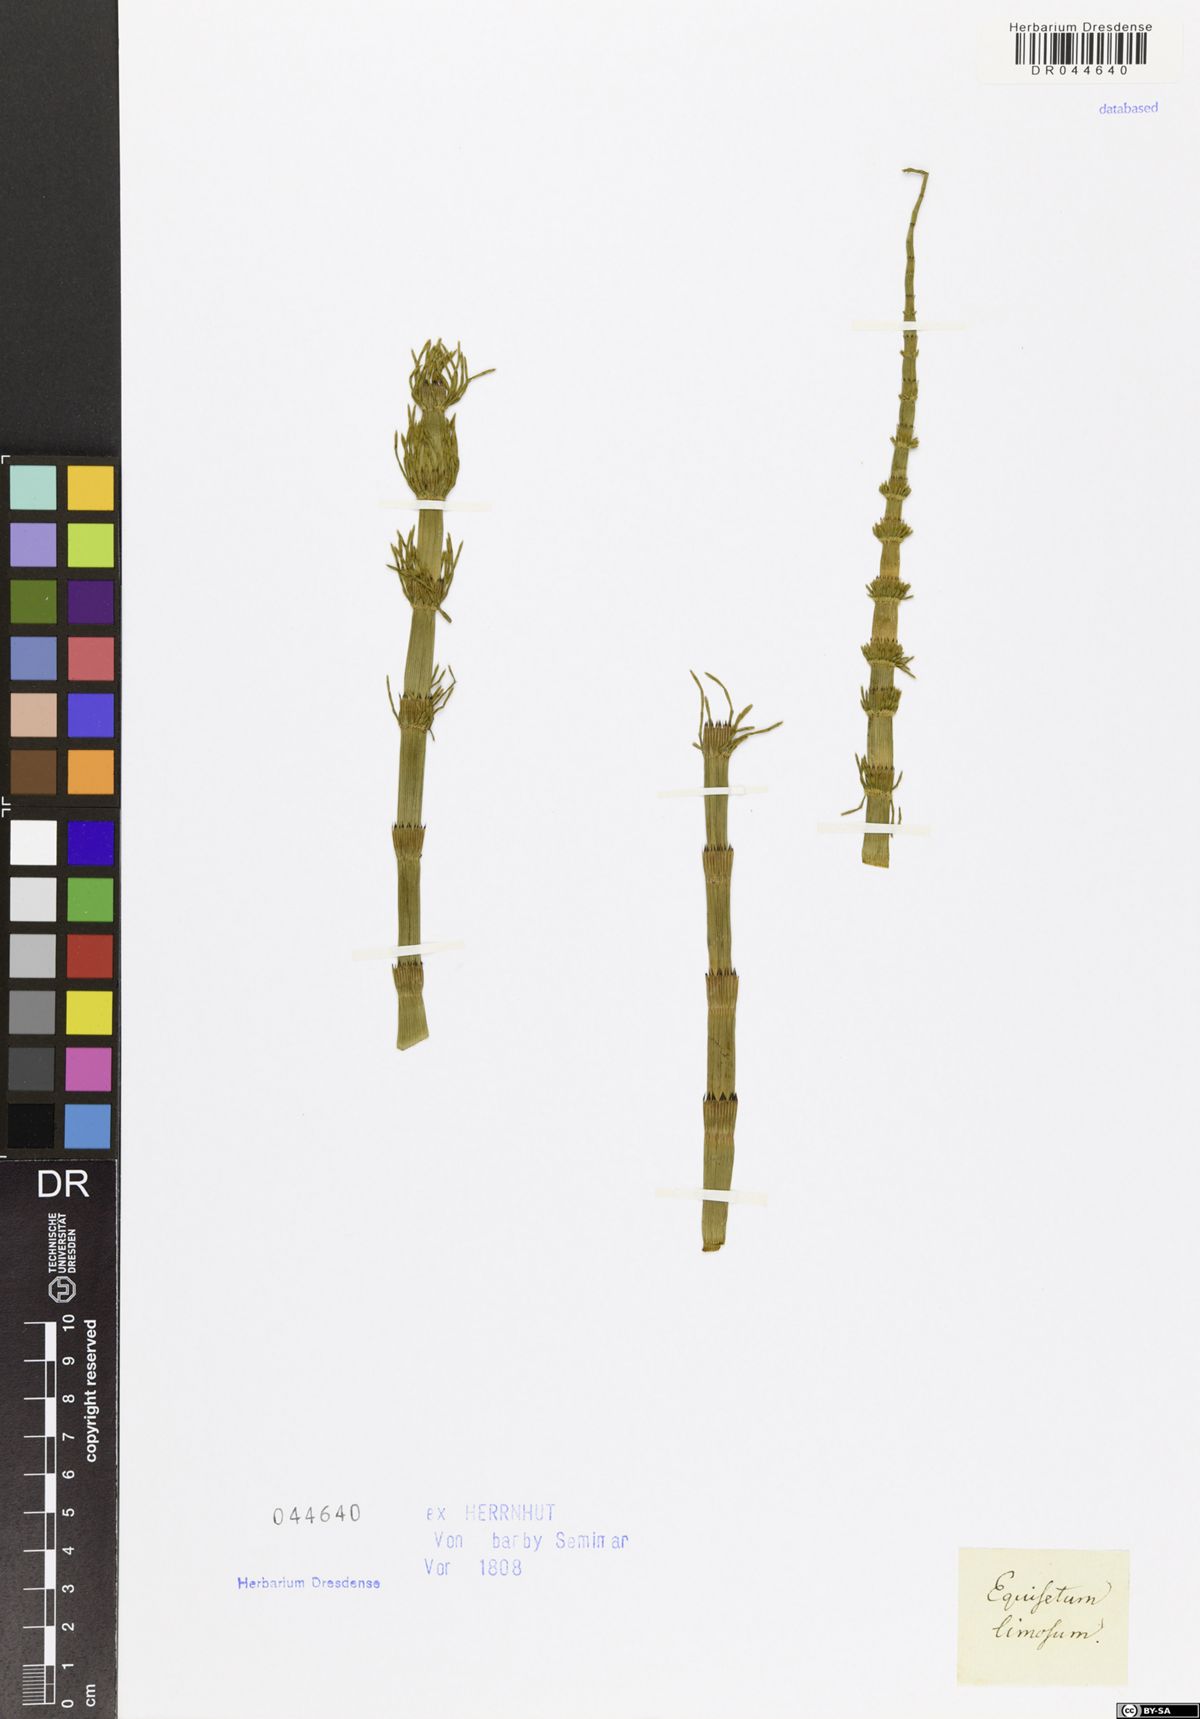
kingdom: Plantae
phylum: Tracheophyta
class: Polypodiopsida
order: Equisetales
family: Equisetaceae
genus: Equisetum
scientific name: Equisetum fluviatile
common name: Water horsetail
